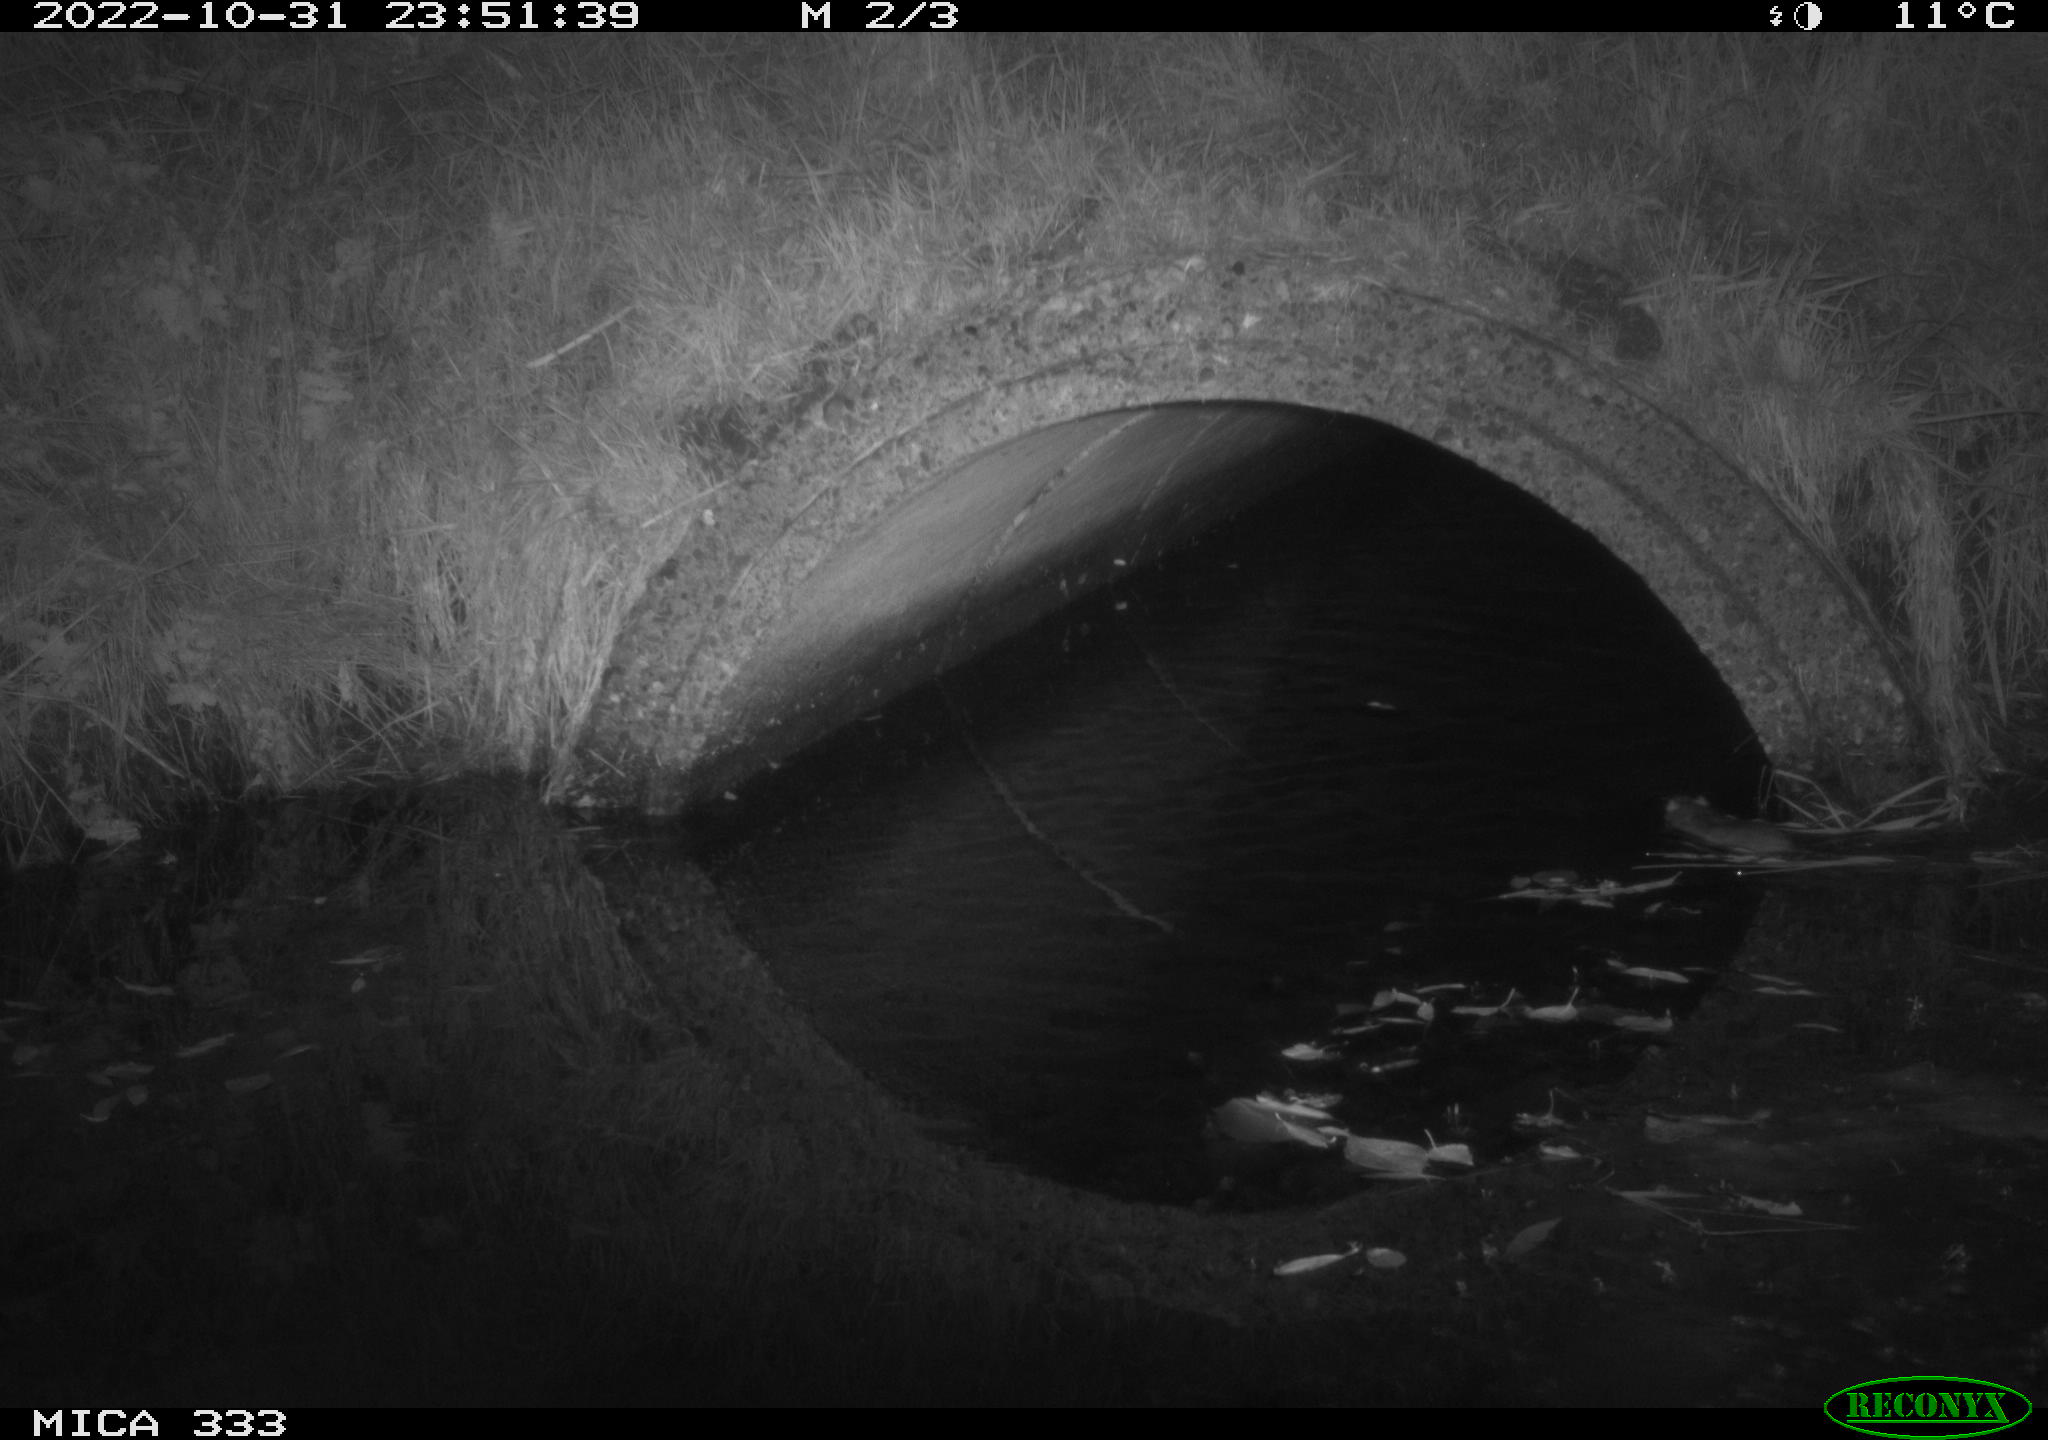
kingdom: Animalia
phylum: Chordata
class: Mammalia
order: Rodentia
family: Muridae
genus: Rattus
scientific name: Rattus norvegicus
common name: Brown rat
